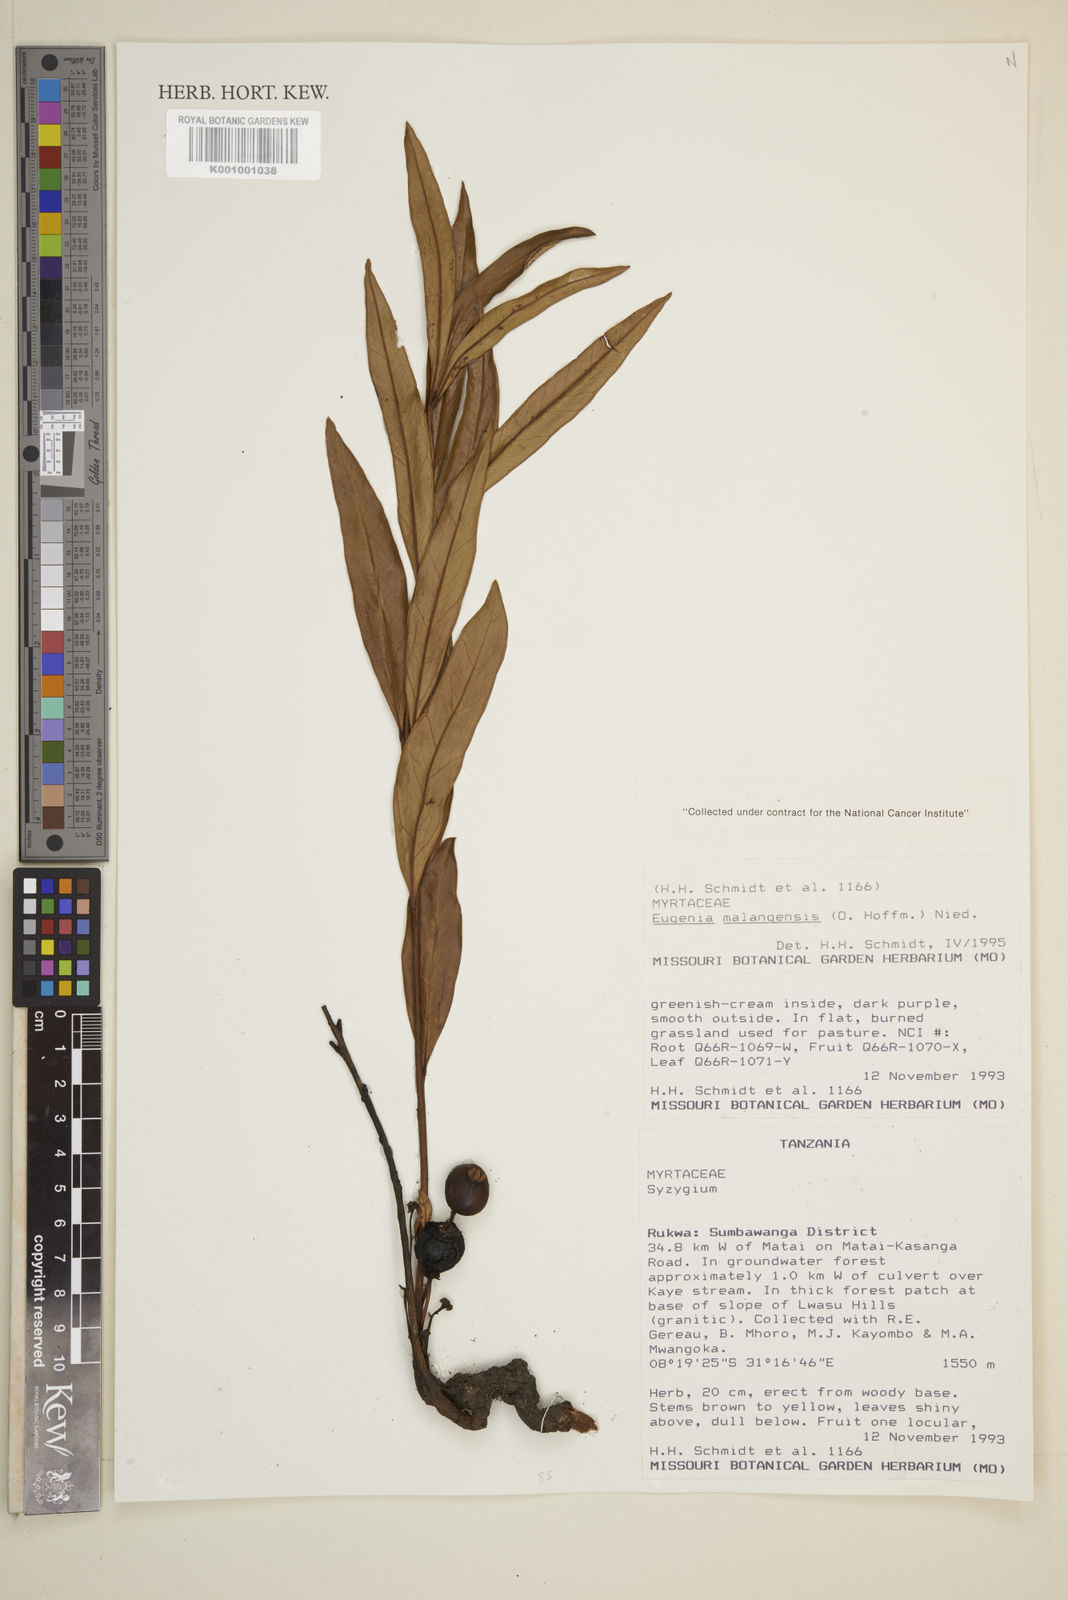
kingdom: Plantae
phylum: Tracheophyta
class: Magnoliopsida
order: Myrtales
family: Myrtaceae
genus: Eugenia
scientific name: Eugenia malangensis
